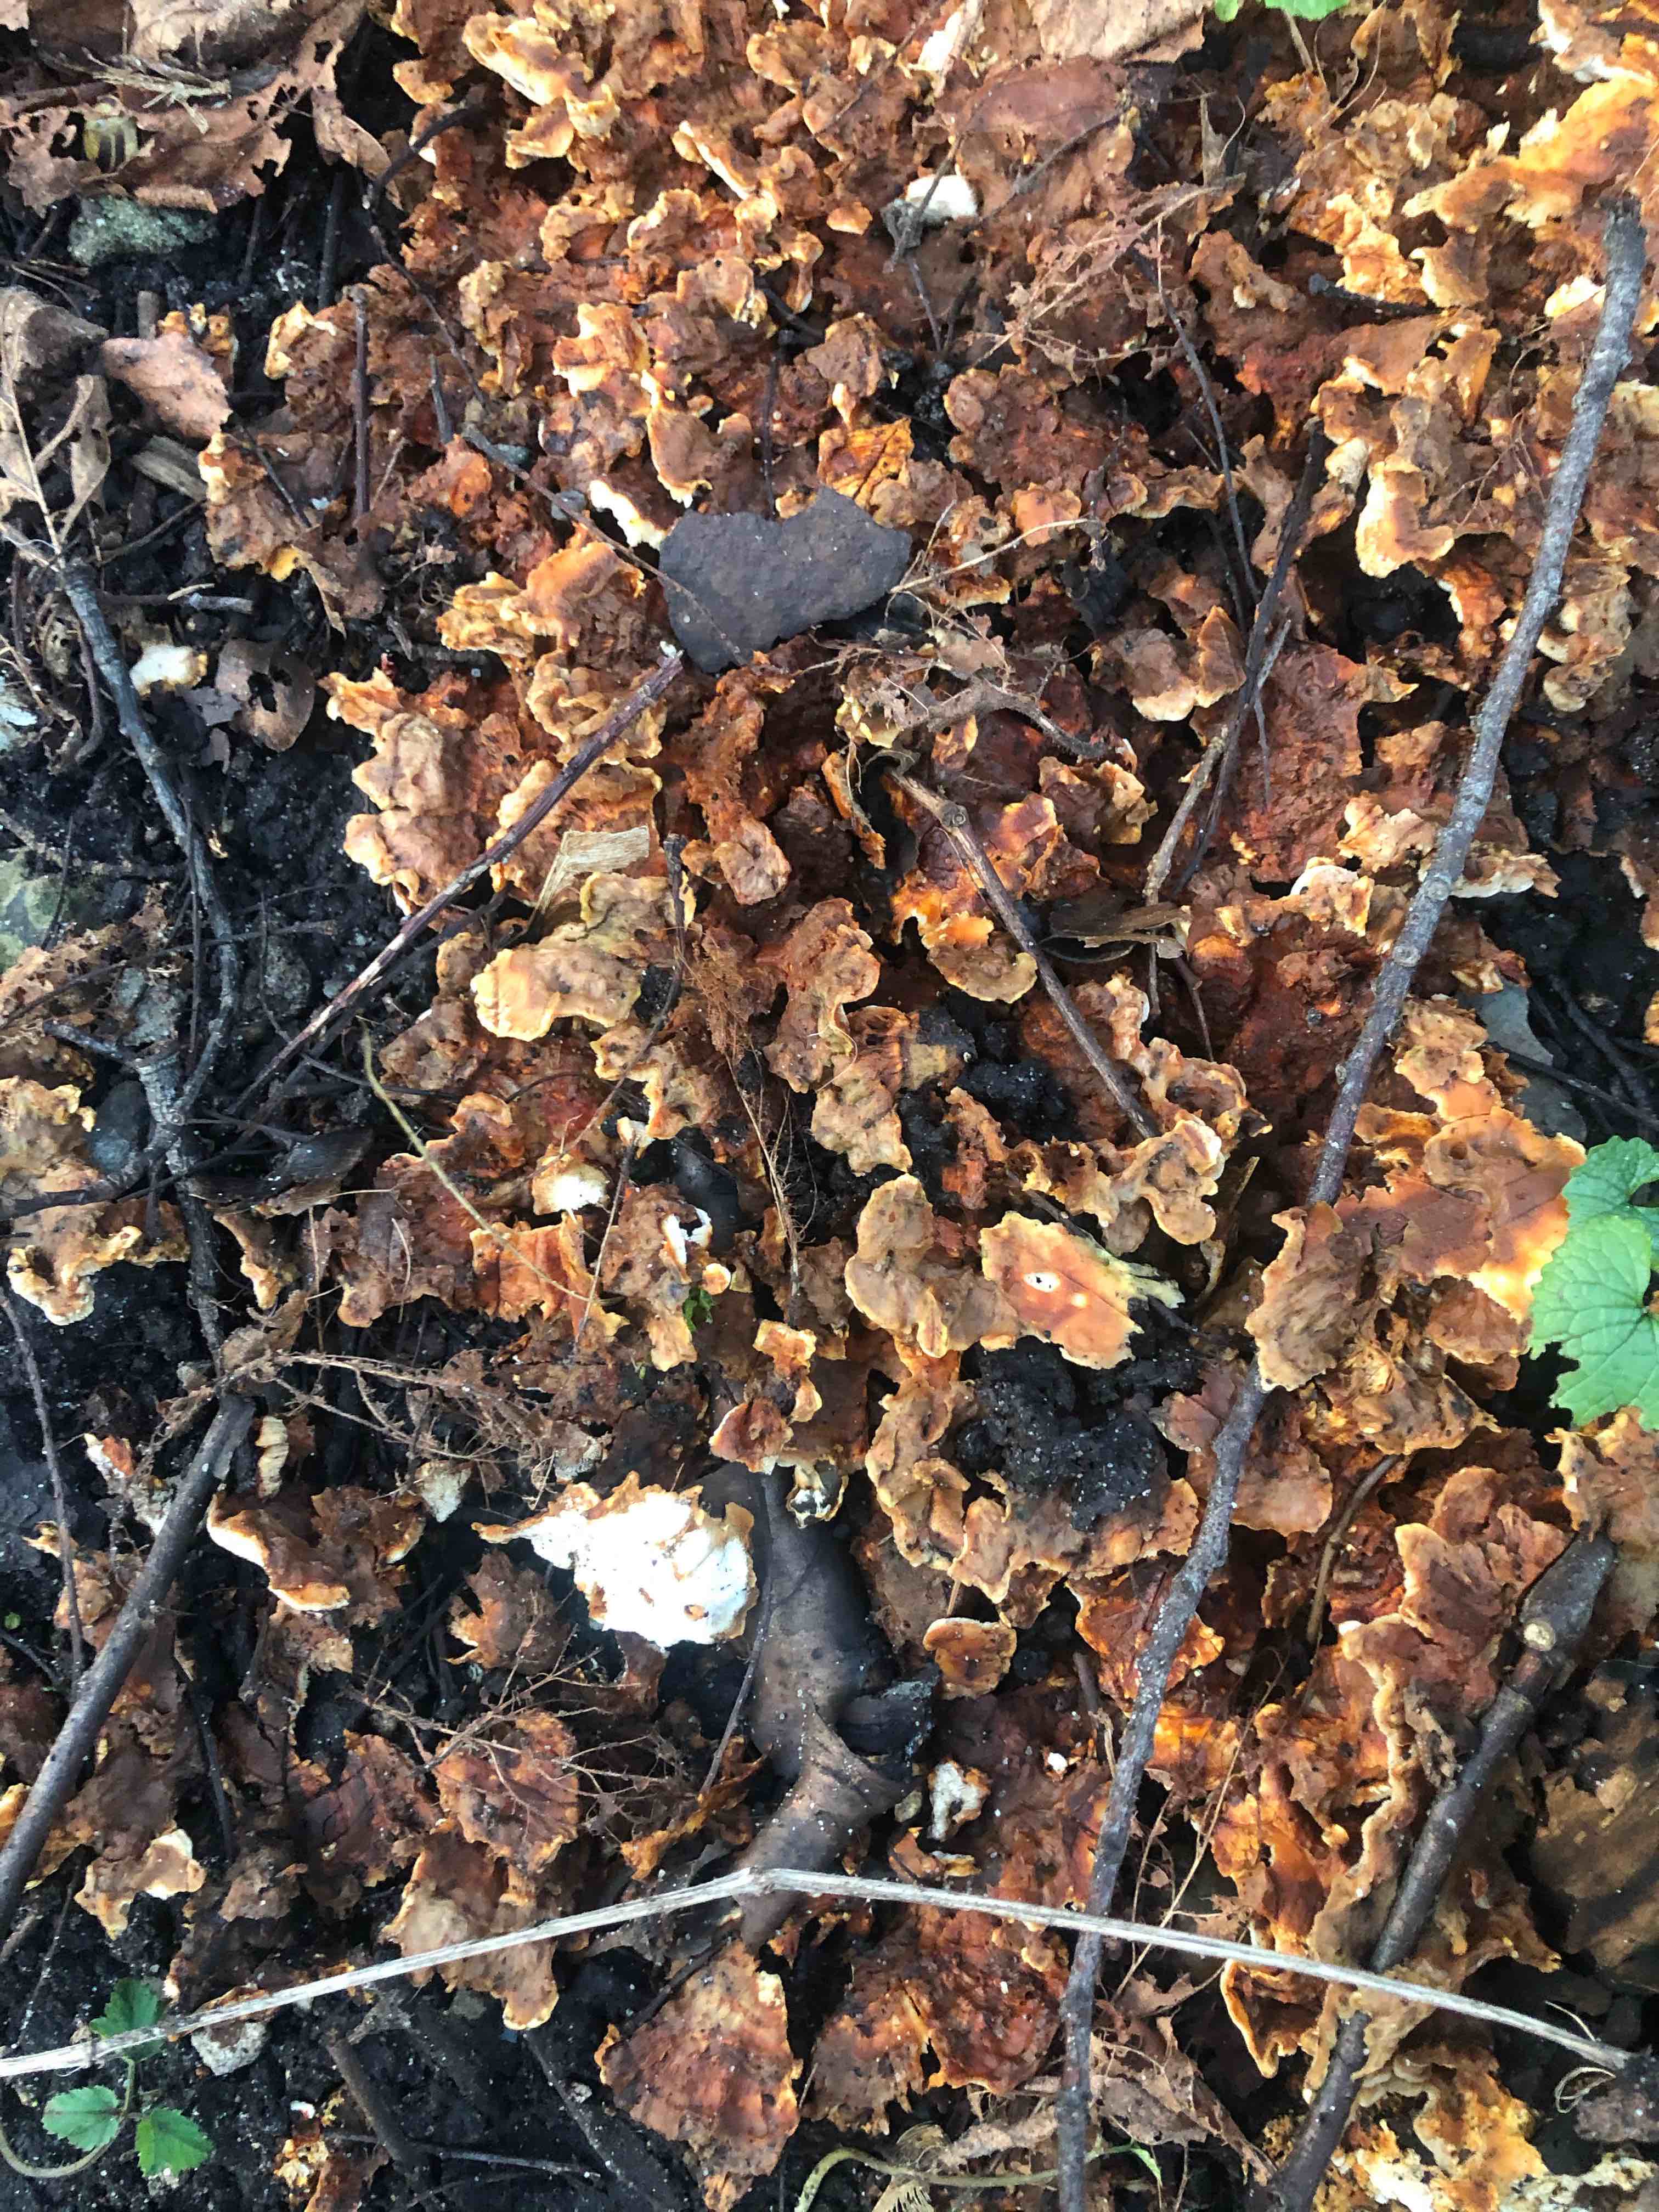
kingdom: Fungi
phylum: Basidiomycota
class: Agaricomycetes
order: Polyporales
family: Steccherinaceae
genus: Loweomyces
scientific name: Loweomyces wynneae
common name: krybende blødporesvamp
